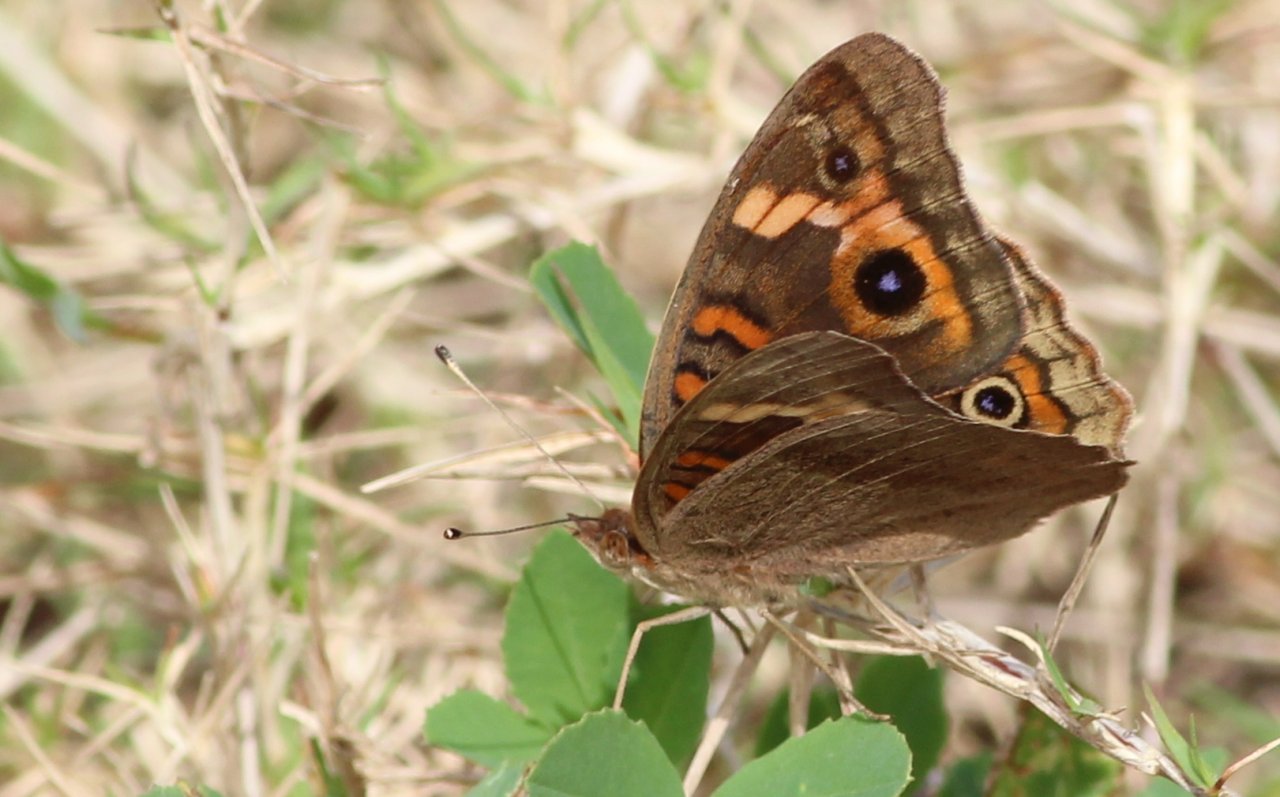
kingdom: Animalia
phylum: Arthropoda
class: Insecta
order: Lepidoptera
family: Nymphalidae
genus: Junonia
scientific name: Junonia
